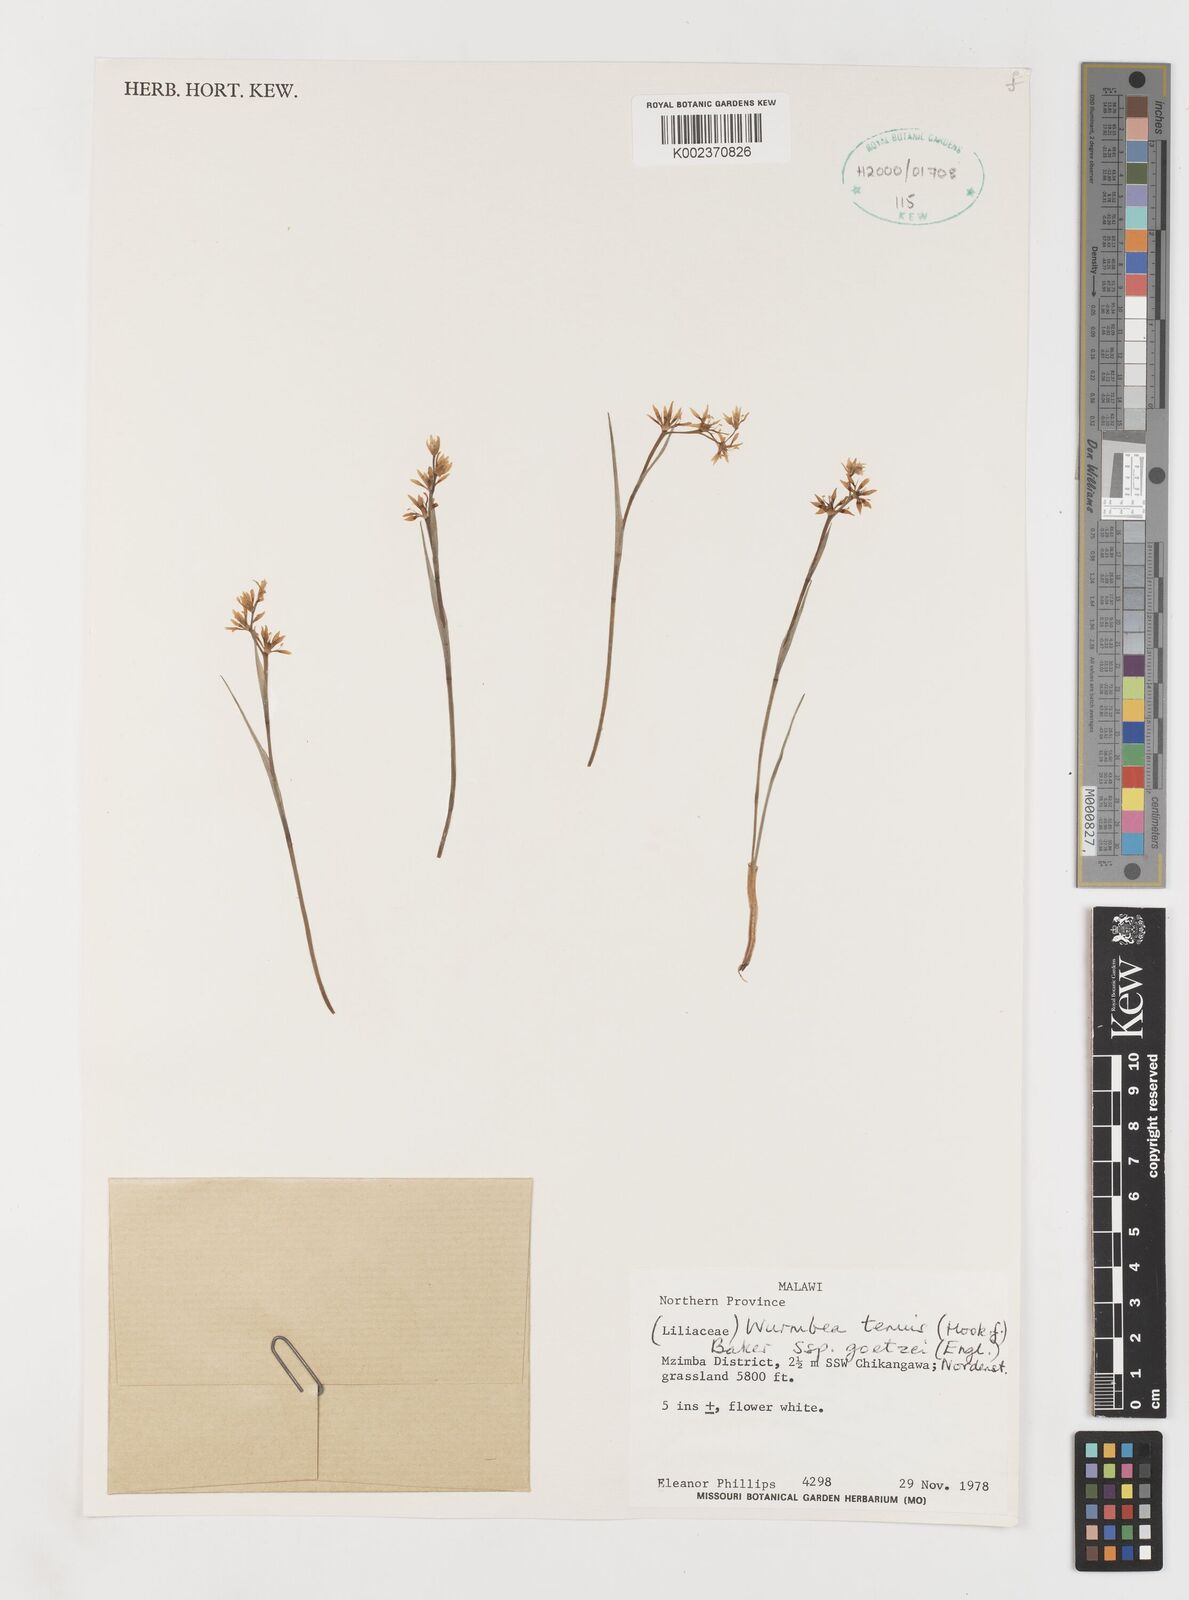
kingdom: Plantae
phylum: Tracheophyta
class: Liliopsida
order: Liliales
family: Colchicaceae
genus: Wurmbea
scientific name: Wurmbea tenuis
